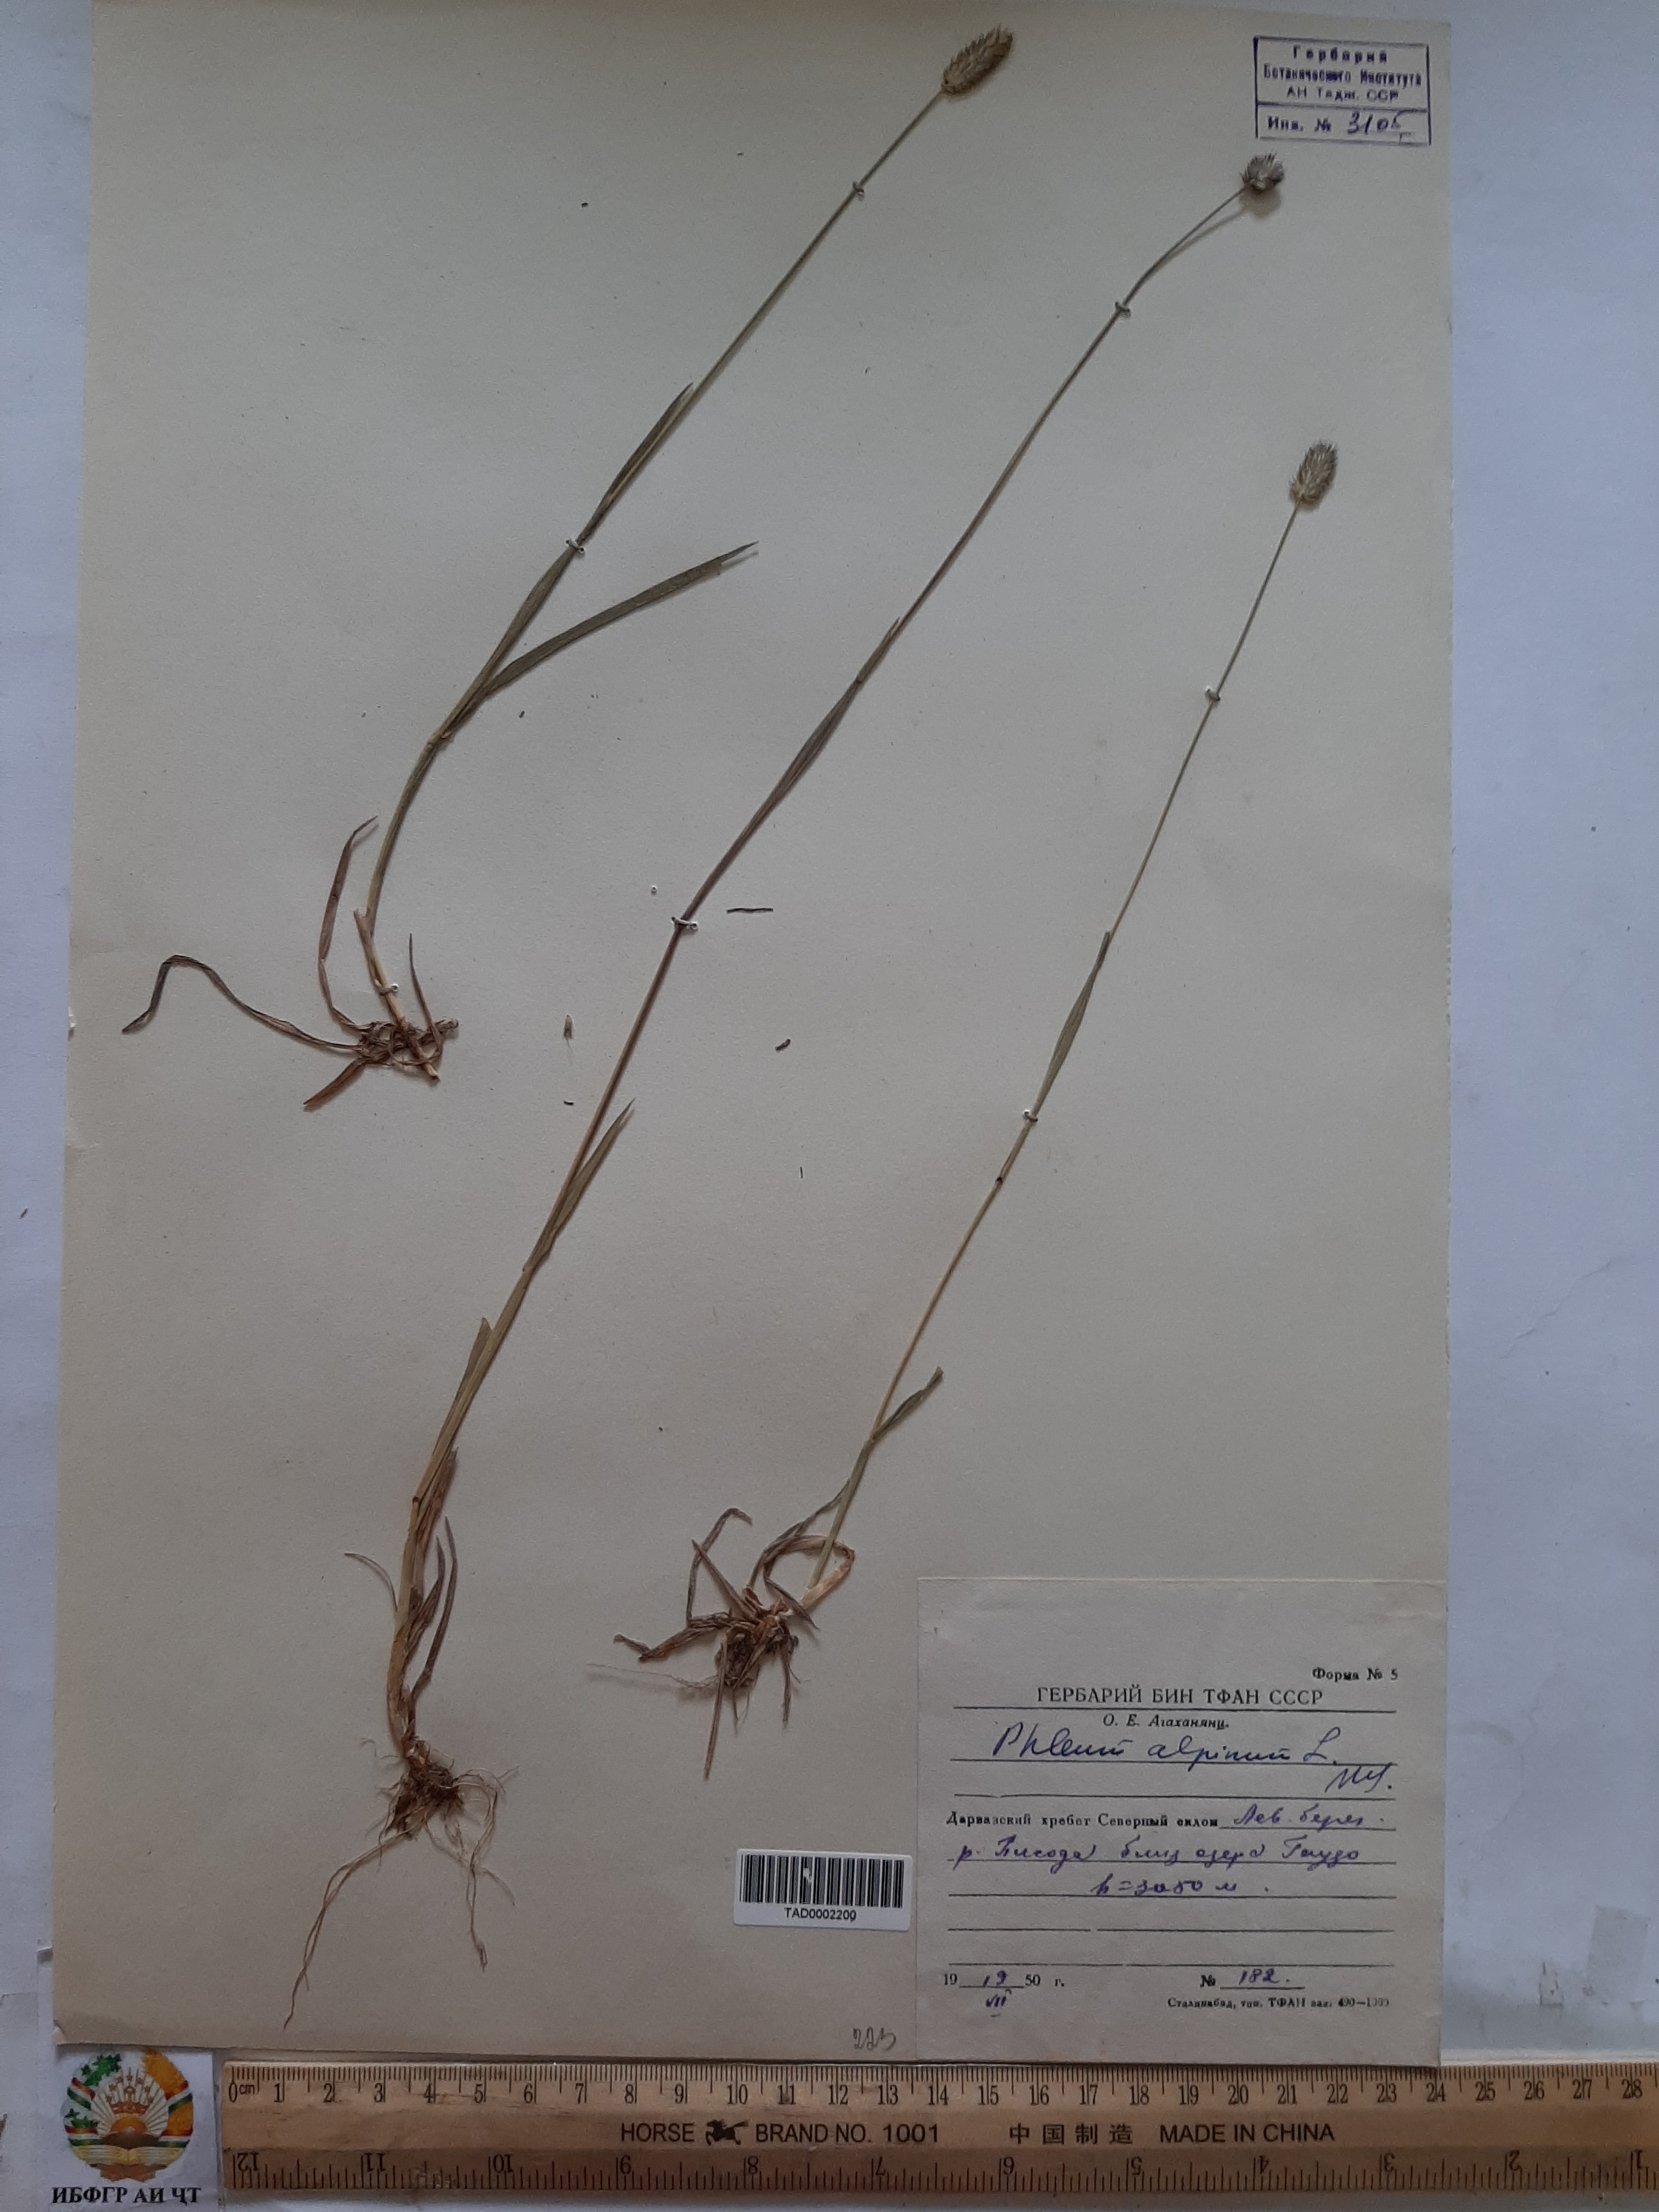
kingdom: Plantae
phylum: Tracheophyta
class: Liliopsida
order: Poales
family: Poaceae
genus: Phleum
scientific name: Phleum alpinum
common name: Alpine cat's-tail
